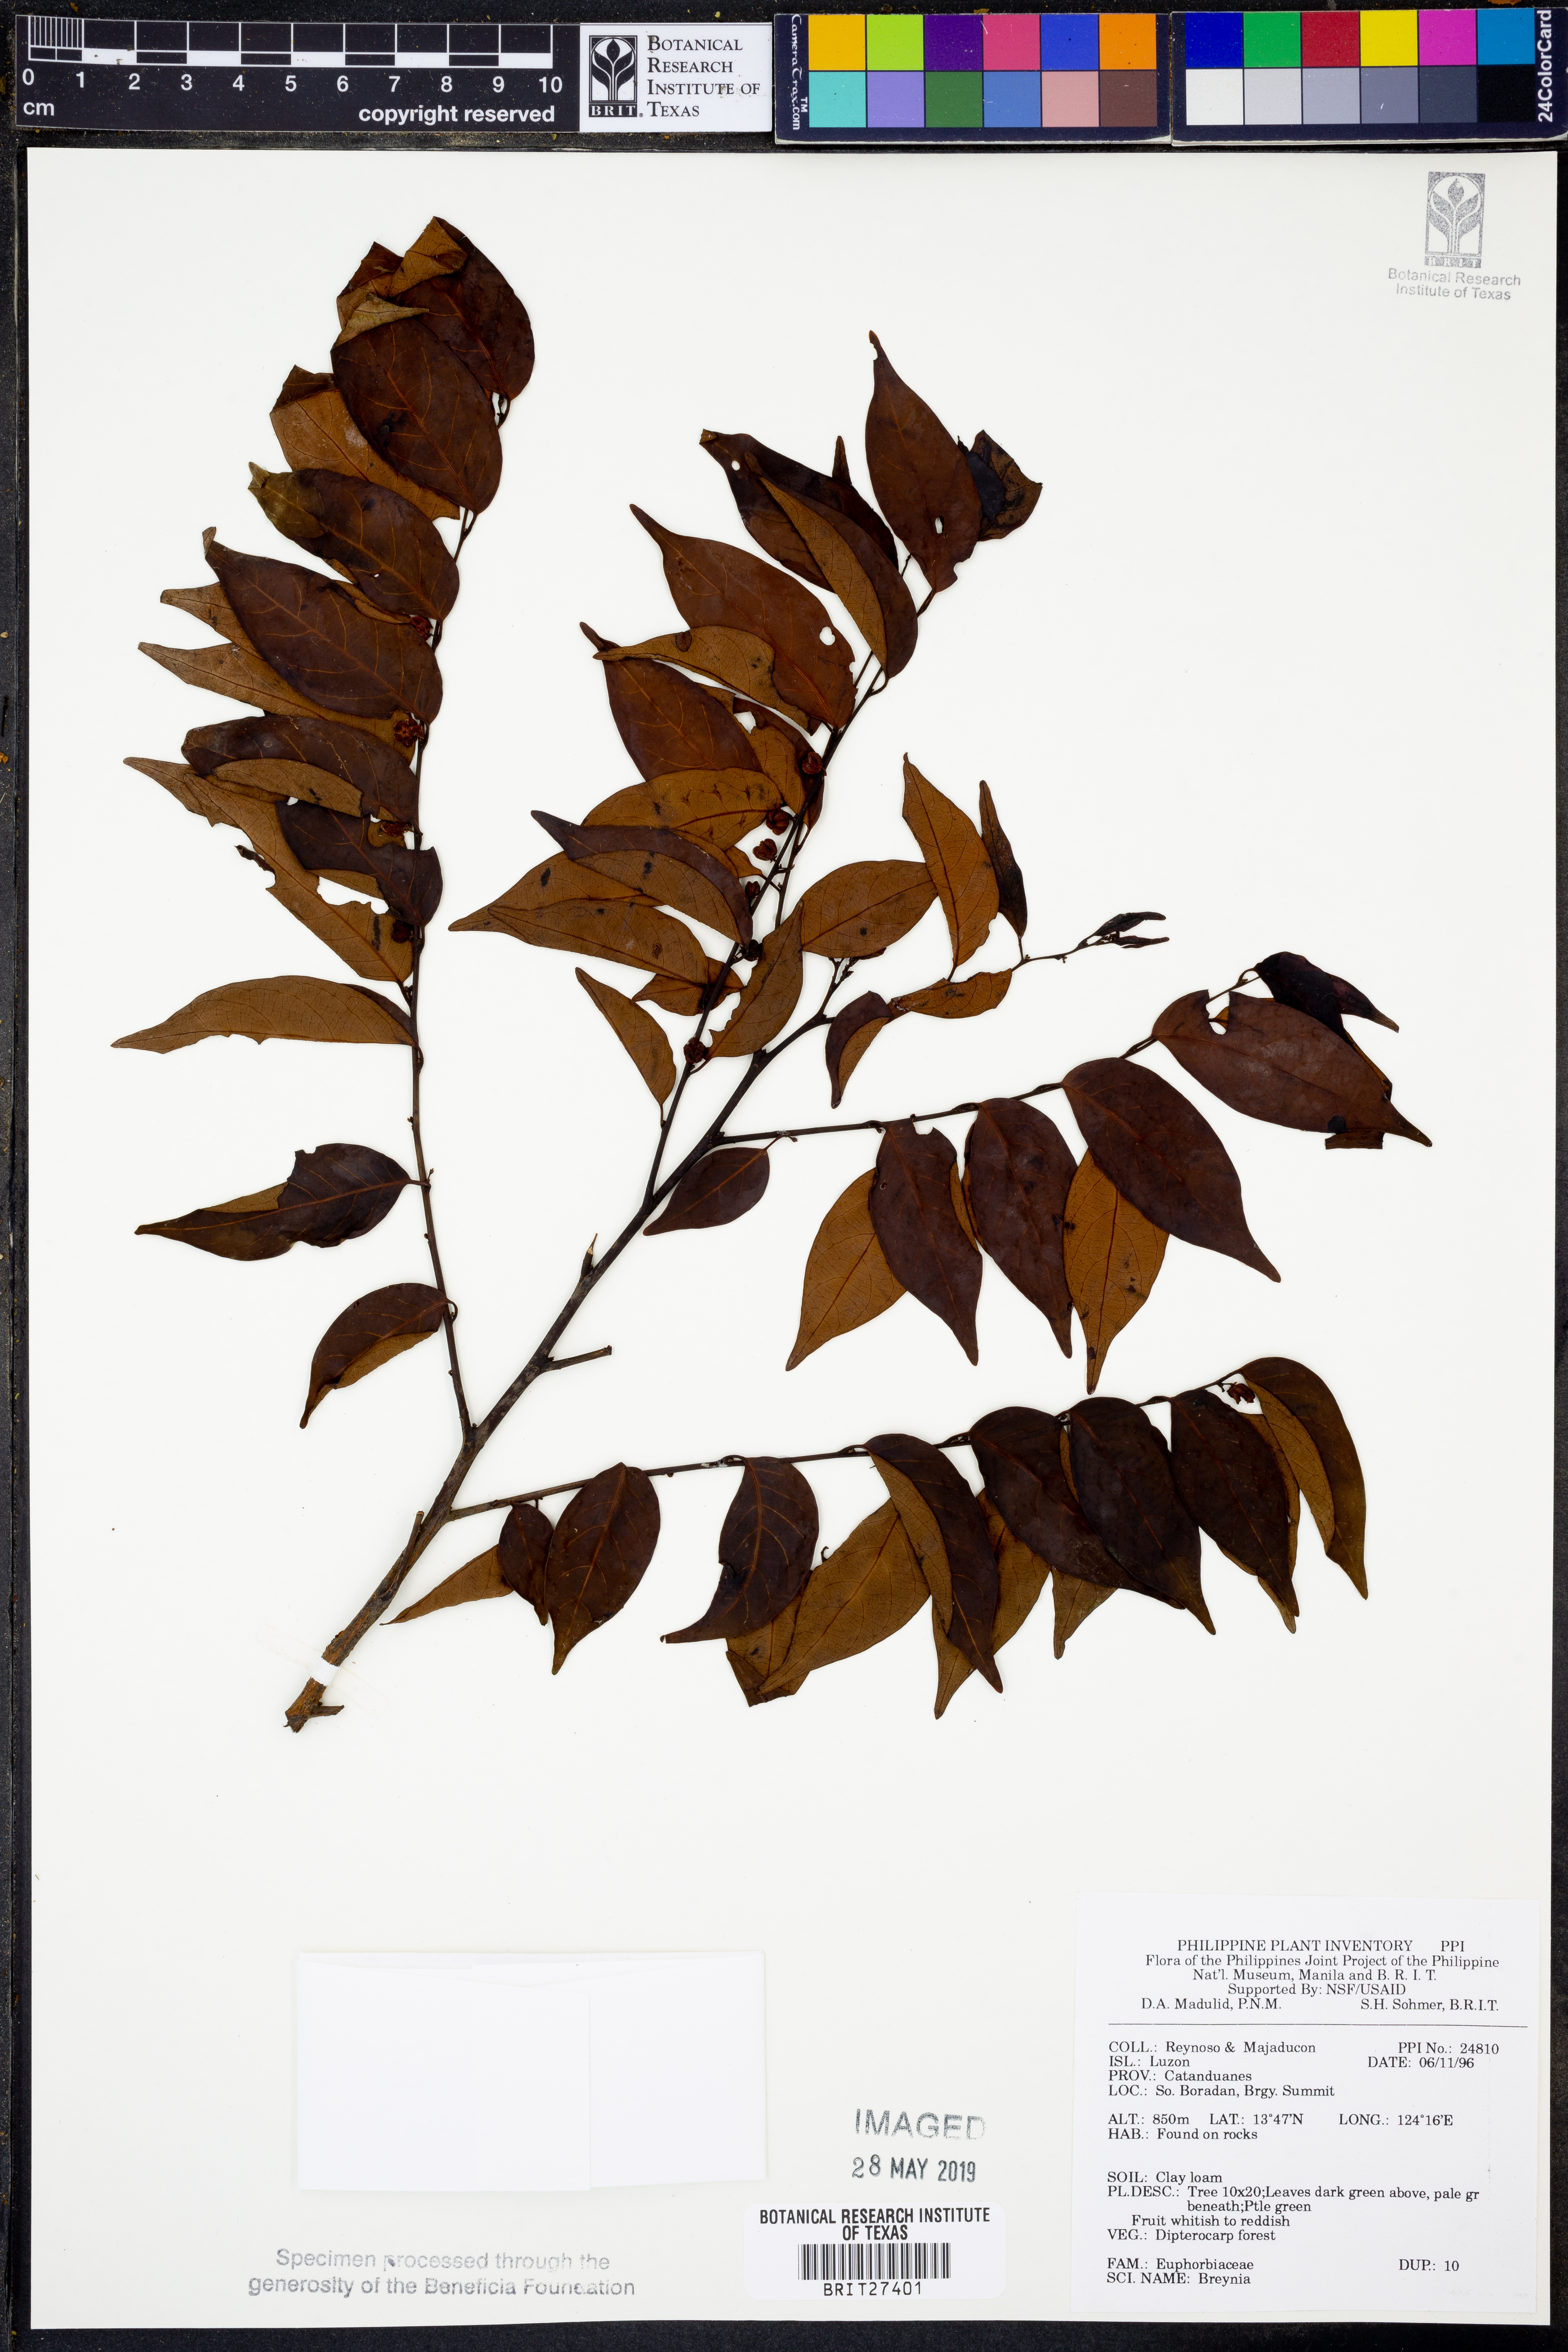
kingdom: Plantae
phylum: Tracheophyta
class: Magnoliopsida
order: Malpighiales
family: Phyllanthaceae
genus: Breynia
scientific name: Breynia
